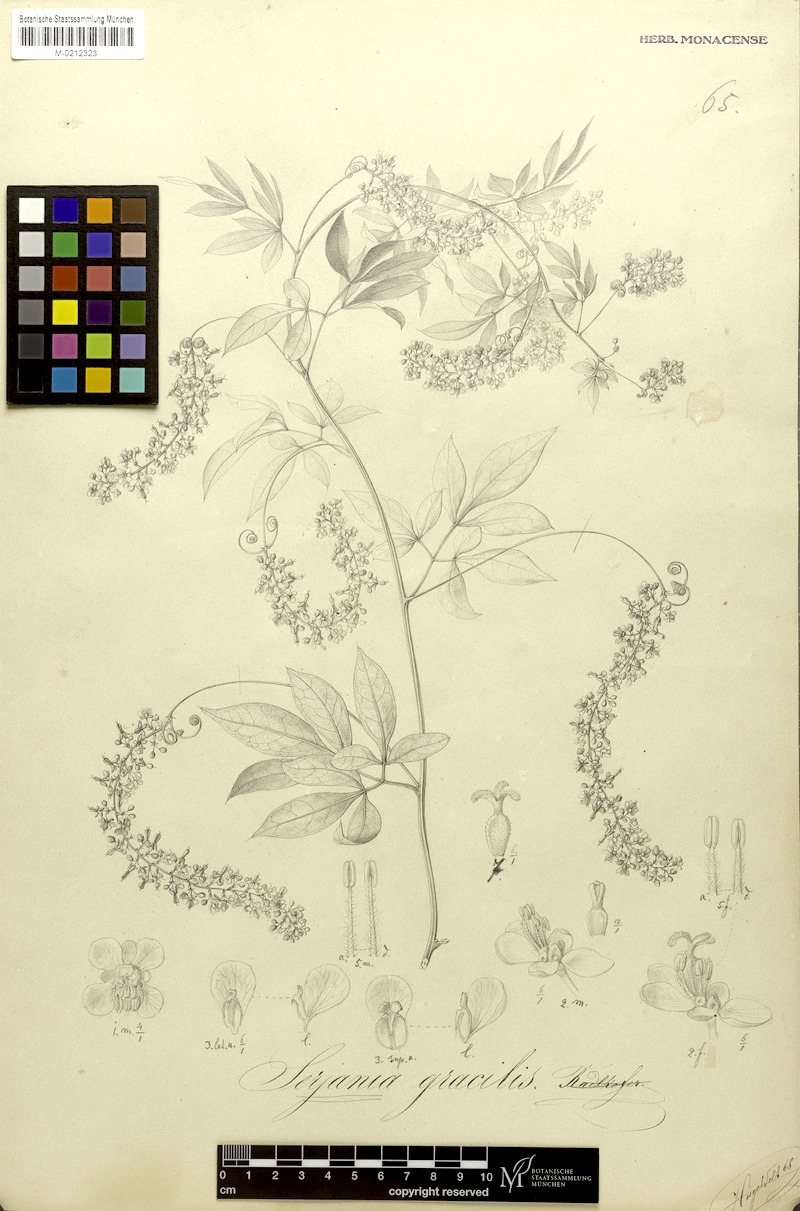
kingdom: Plantae
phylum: Tracheophyta
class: Magnoliopsida
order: Sapindales
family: Sapindaceae
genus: Serjania
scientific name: Serjania gracilis
